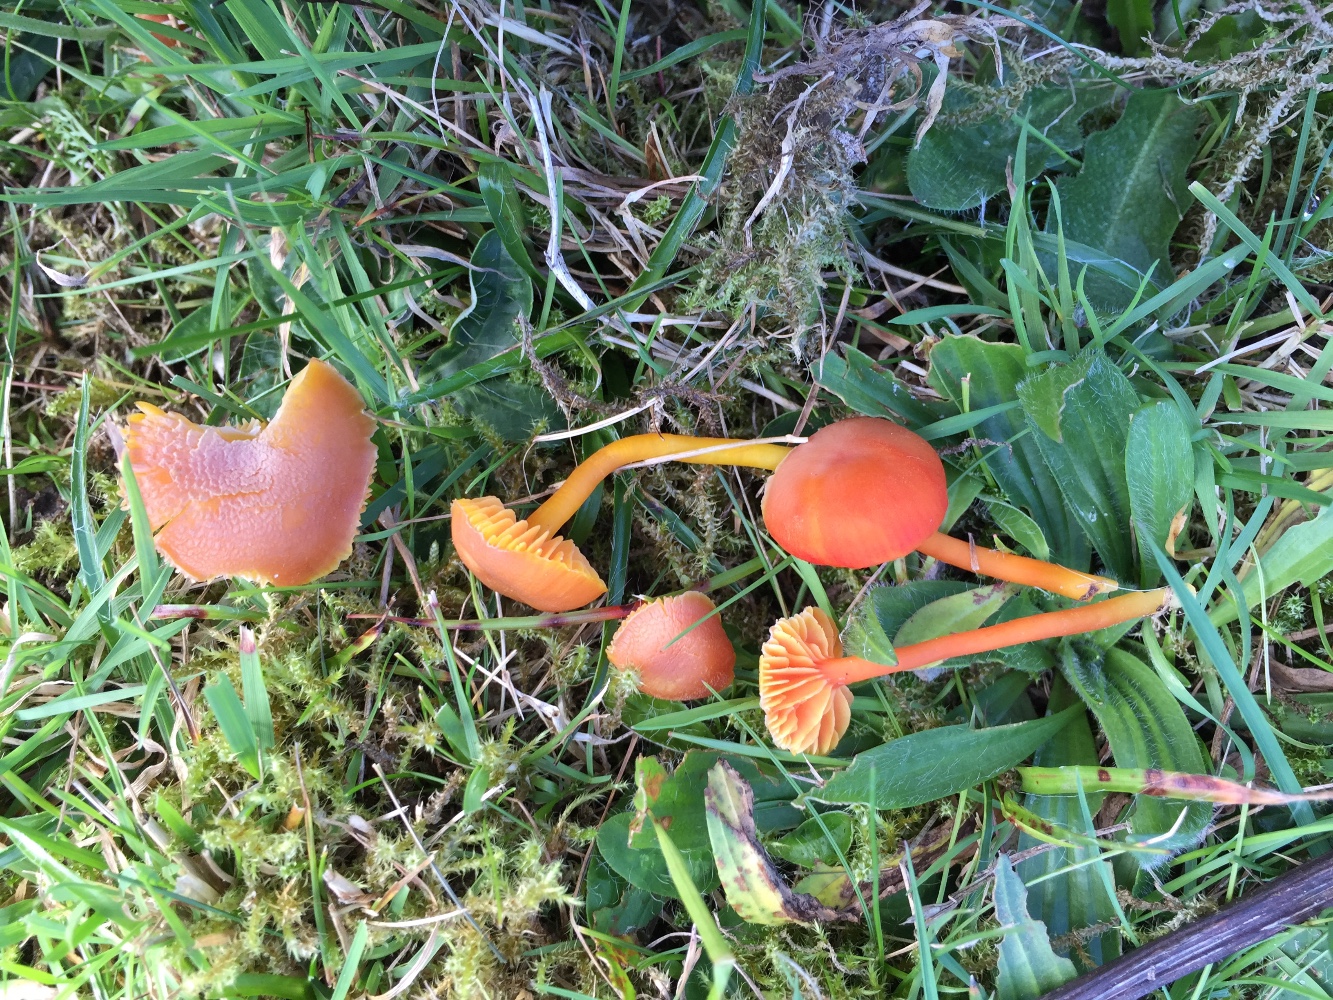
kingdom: Fungi
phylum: Basidiomycota
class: Agaricomycetes
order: Agaricales
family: Hygrophoraceae
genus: Hygrocybe
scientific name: Hygrocybe miniata
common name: mønje-vokshat
